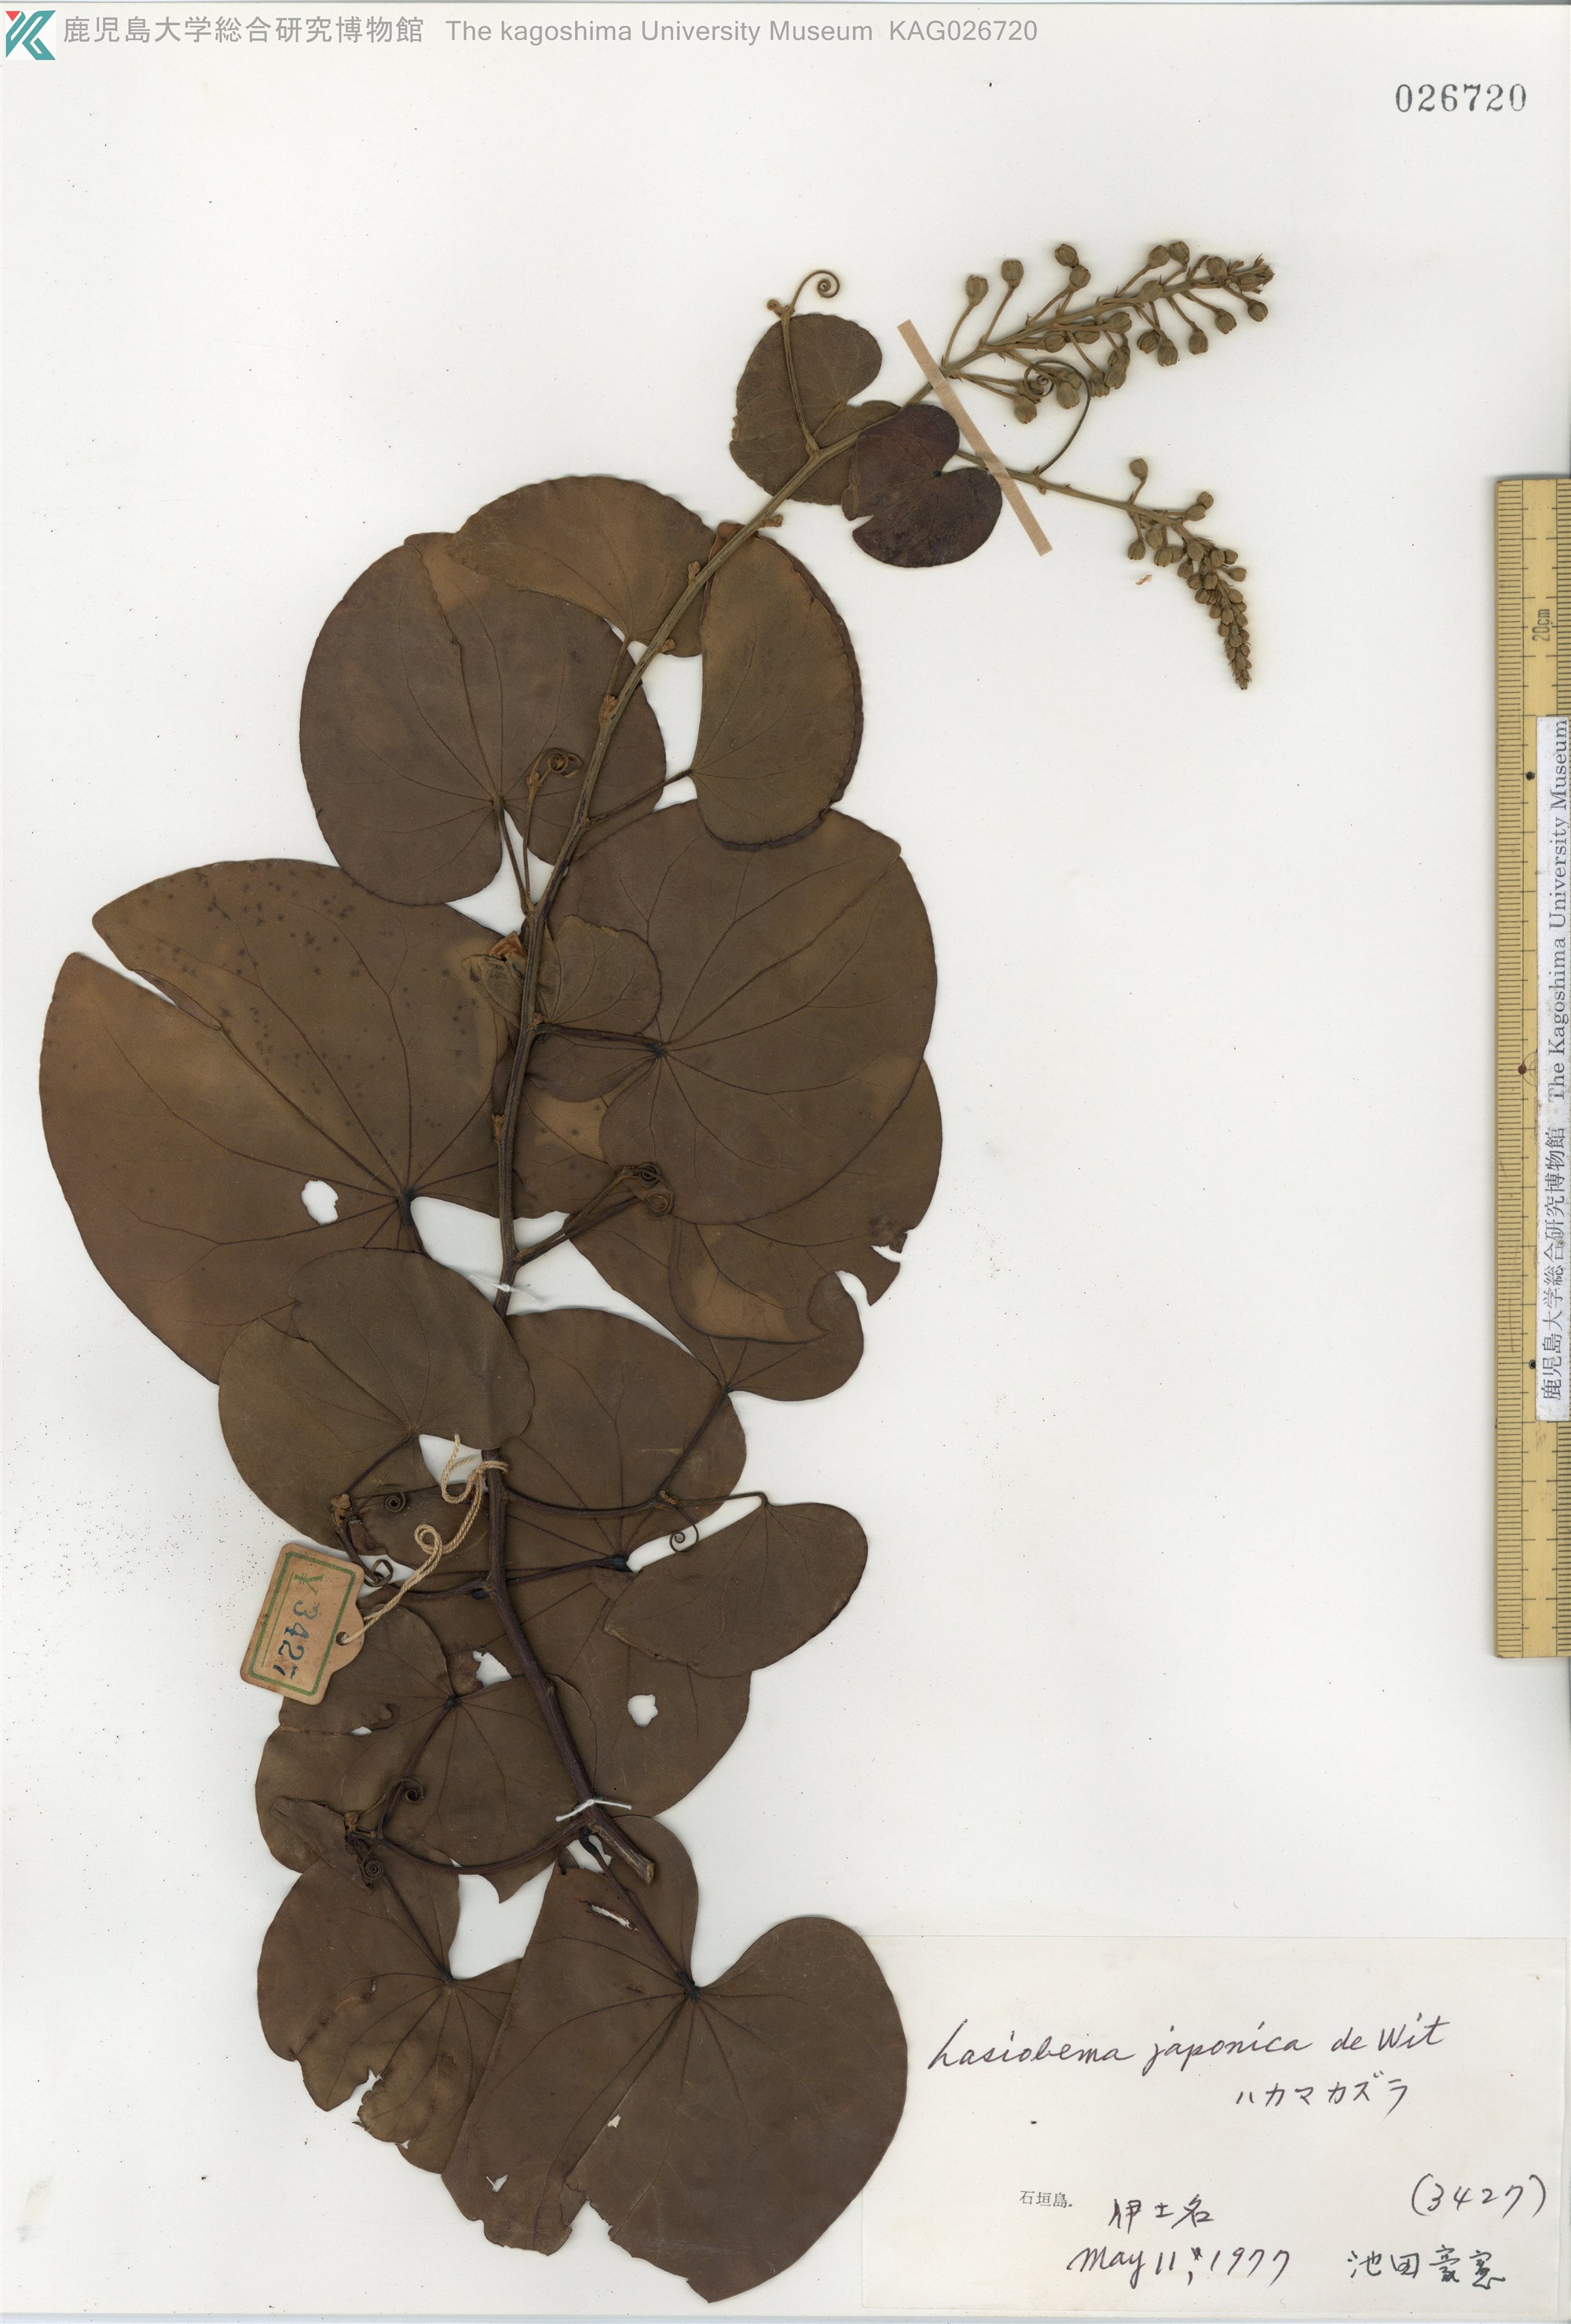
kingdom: Plantae
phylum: Tracheophyta
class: Magnoliopsida
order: Fabales
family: Fabaceae
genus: Phanera
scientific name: Phanera japonica
